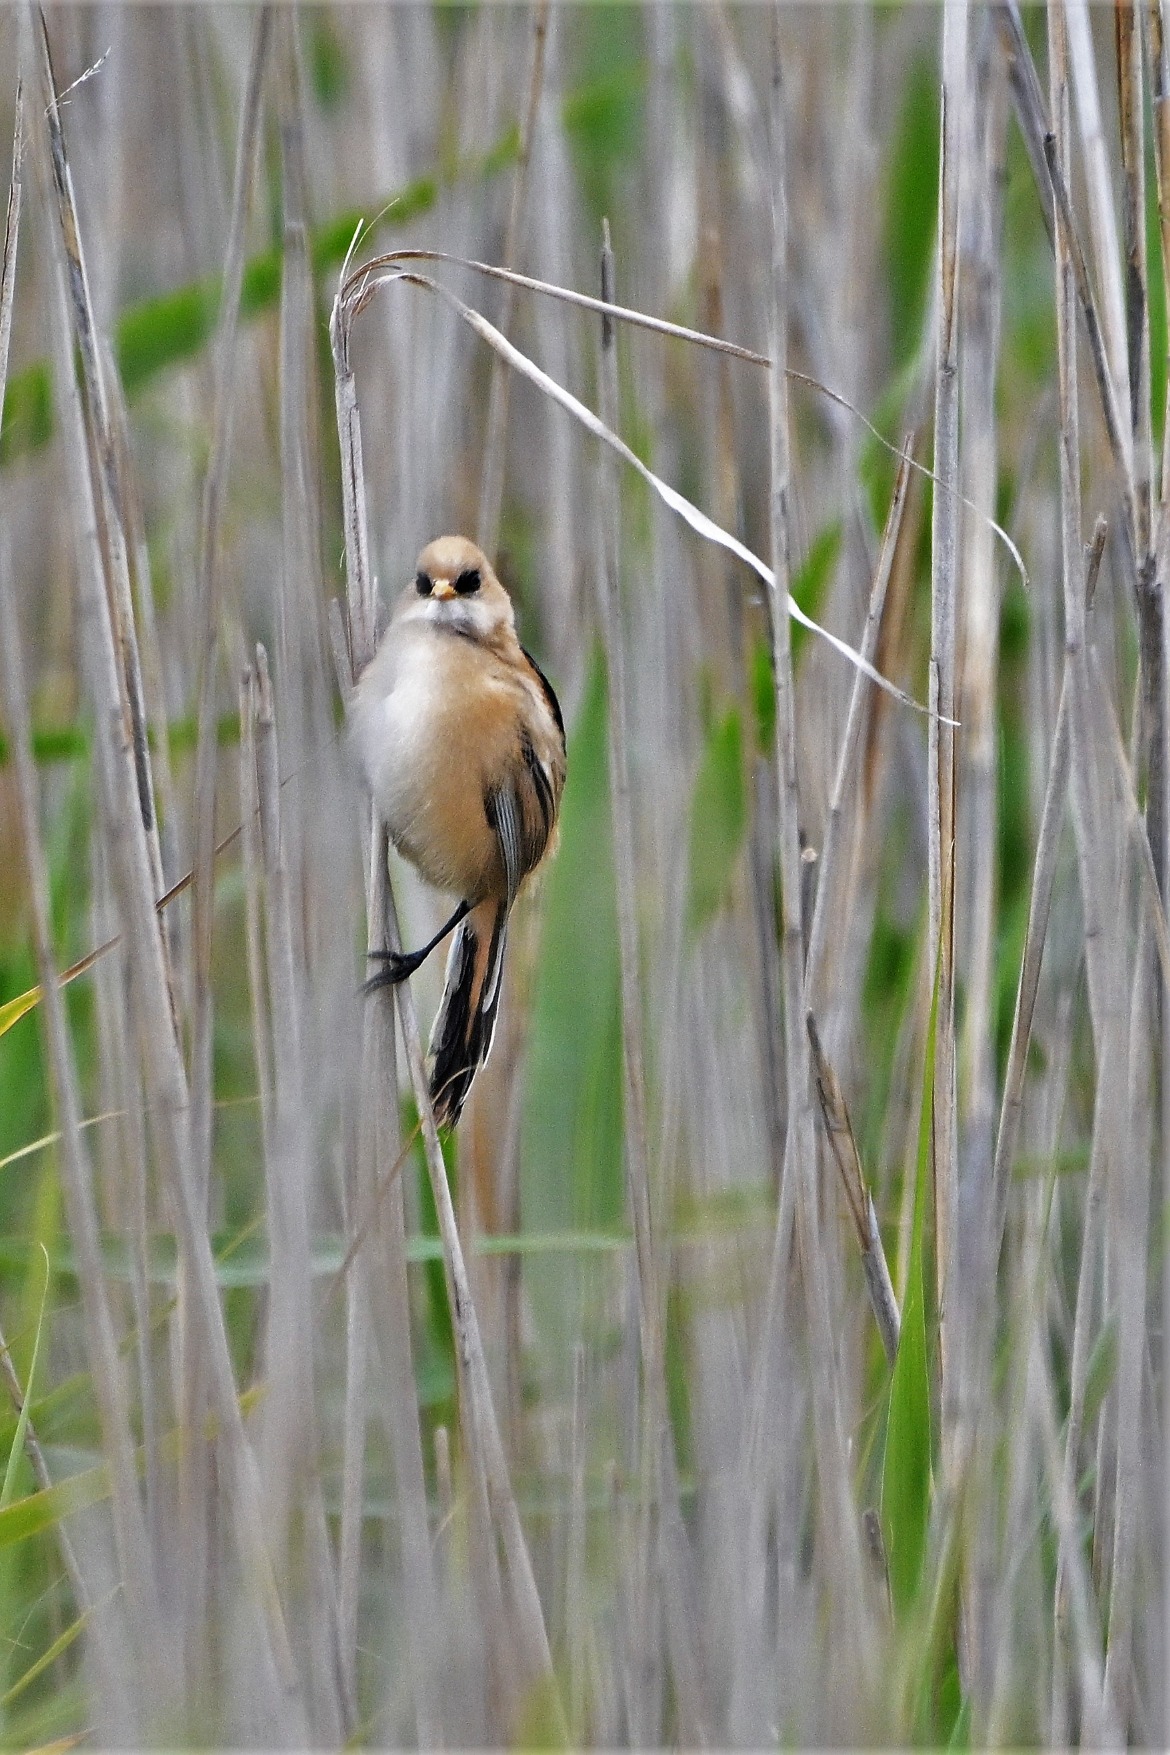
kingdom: Animalia
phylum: Chordata
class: Aves
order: Passeriformes
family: Panuridae
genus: Panurus
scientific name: Panurus biarmicus
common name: Skægmejse
